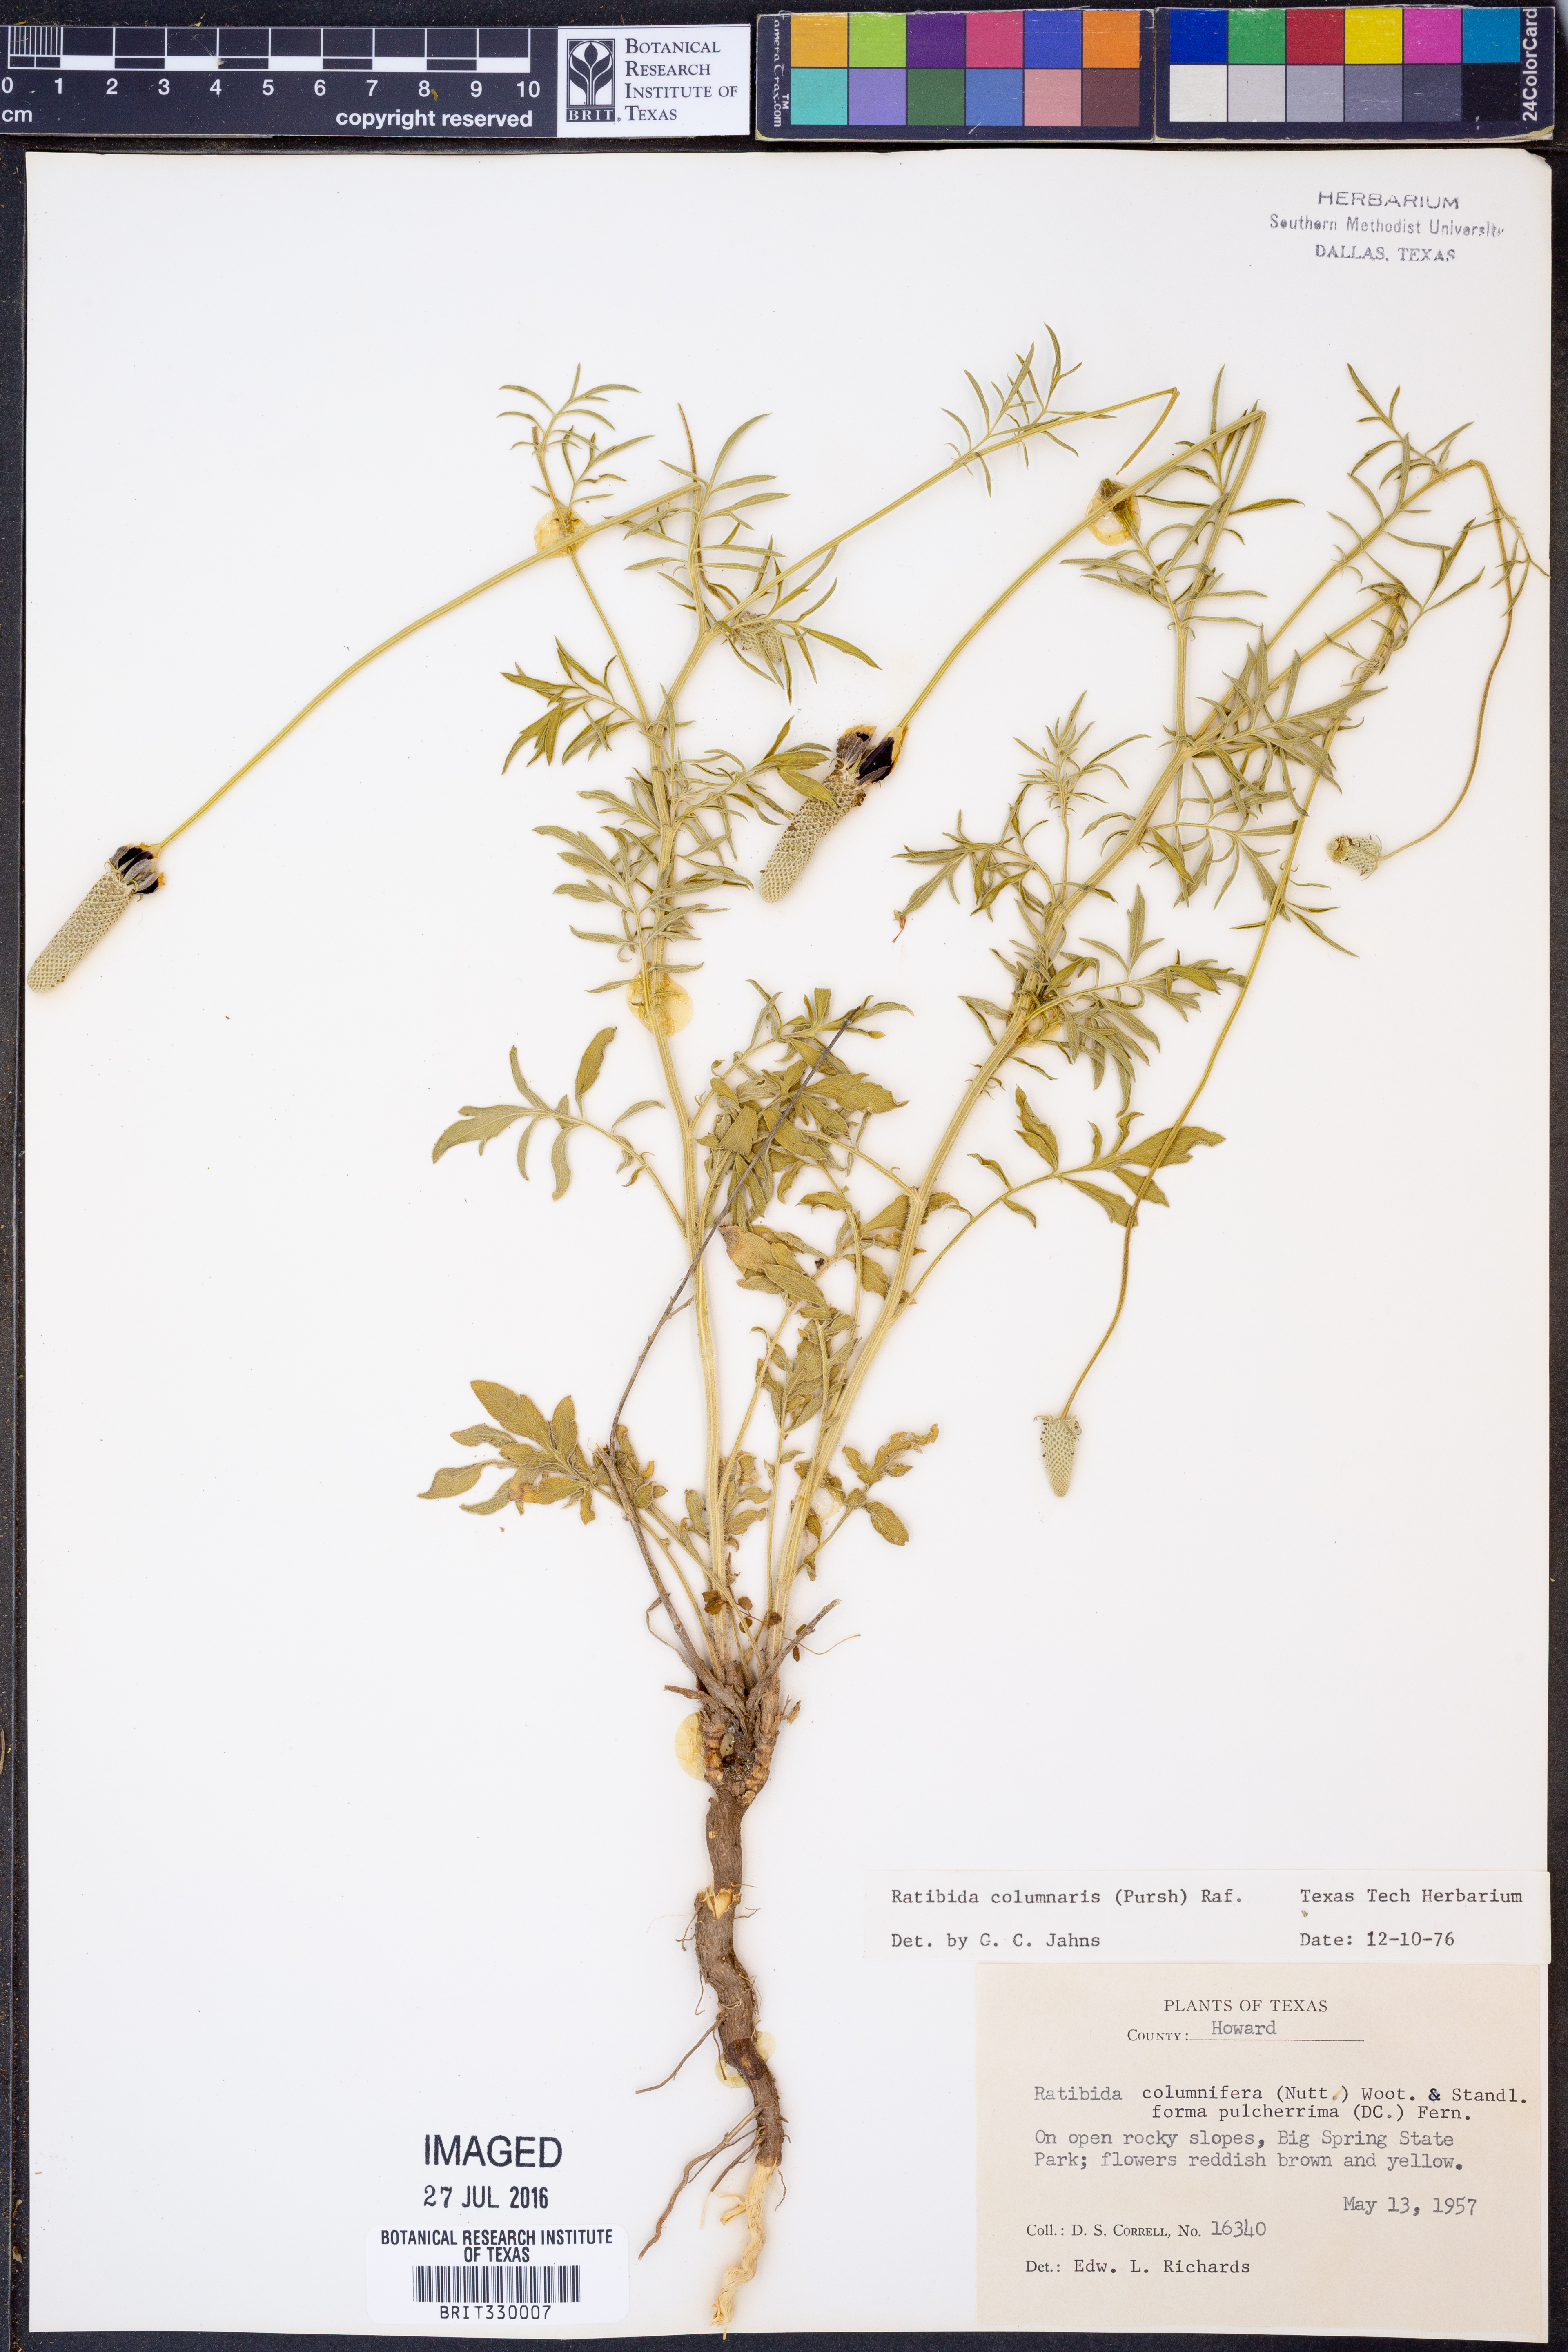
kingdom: Plantae
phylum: Tracheophyta
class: Magnoliopsida
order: Asterales
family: Asteraceae
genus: Ratibida
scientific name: Ratibida columnifera
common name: Prairie coneflower
